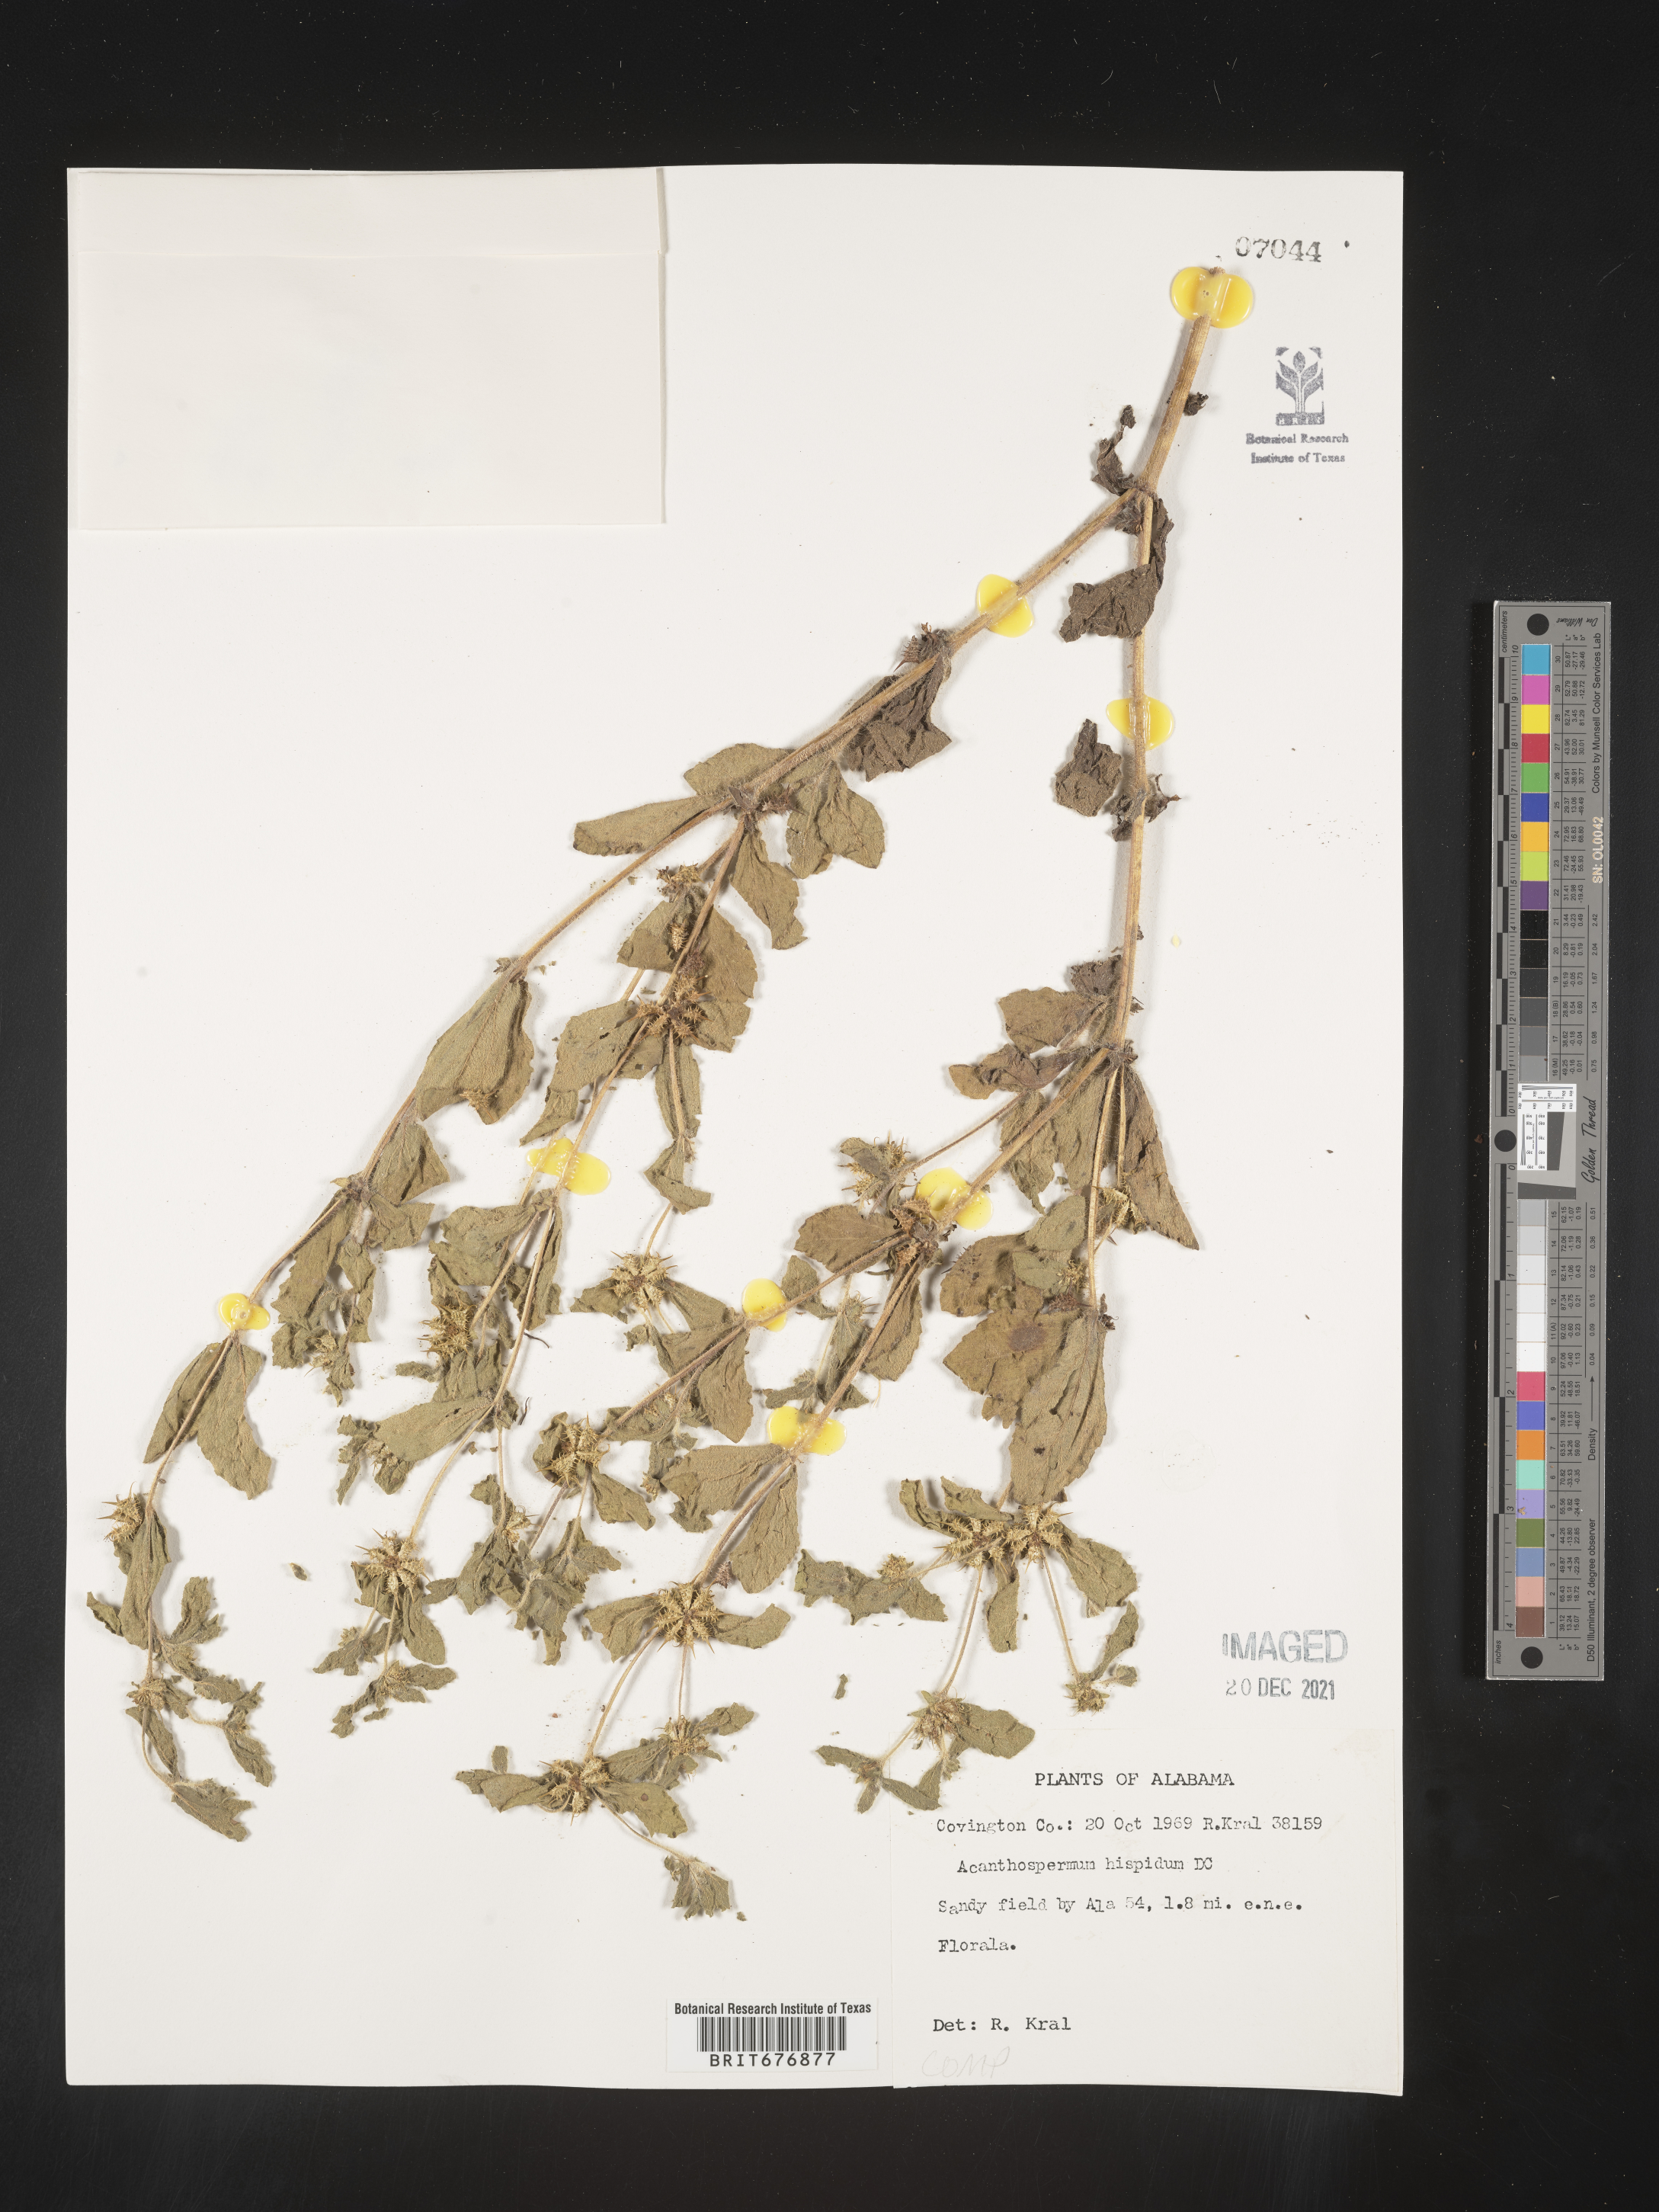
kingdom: Plantae
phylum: Tracheophyta
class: Magnoliopsida
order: Asterales
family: Asteraceae
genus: Acanthospermum
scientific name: Acanthospermum hispidum
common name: Hispid starbur
